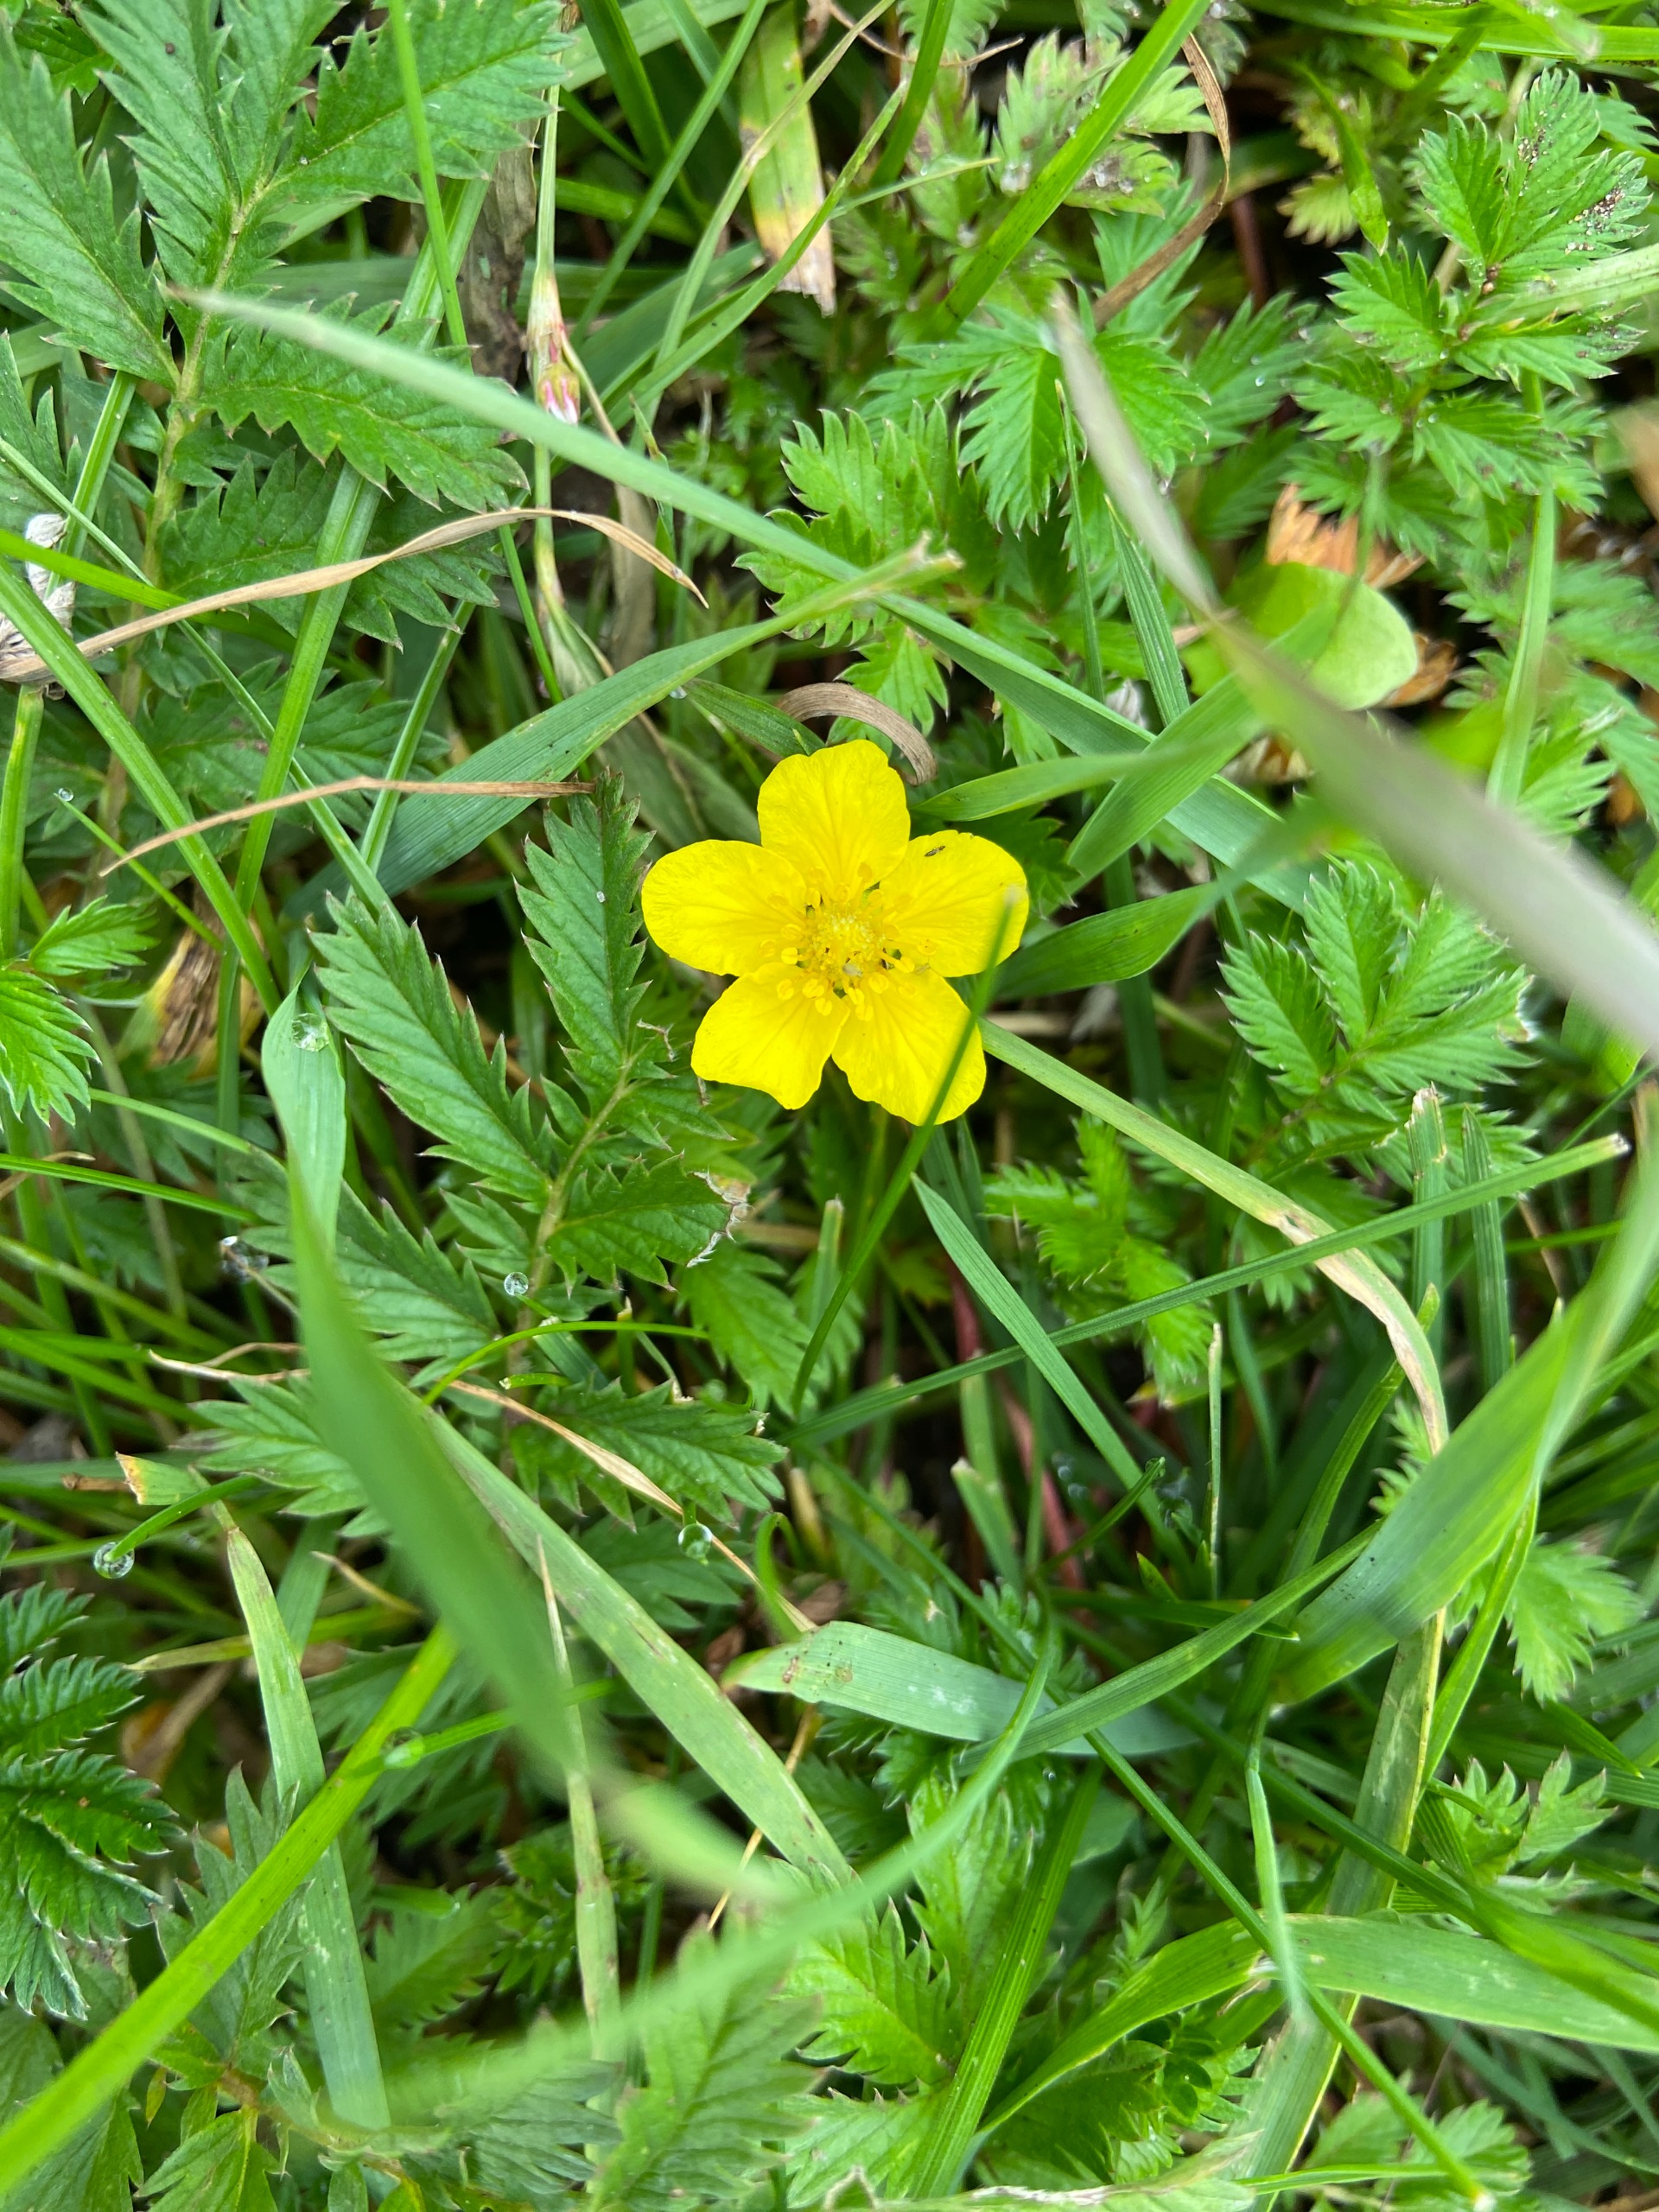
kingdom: Plantae
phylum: Tracheophyta
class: Magnoliopsida
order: Rosales
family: Rosaceae
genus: Argentina
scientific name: Argentina anserina
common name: Gåsepotentil
